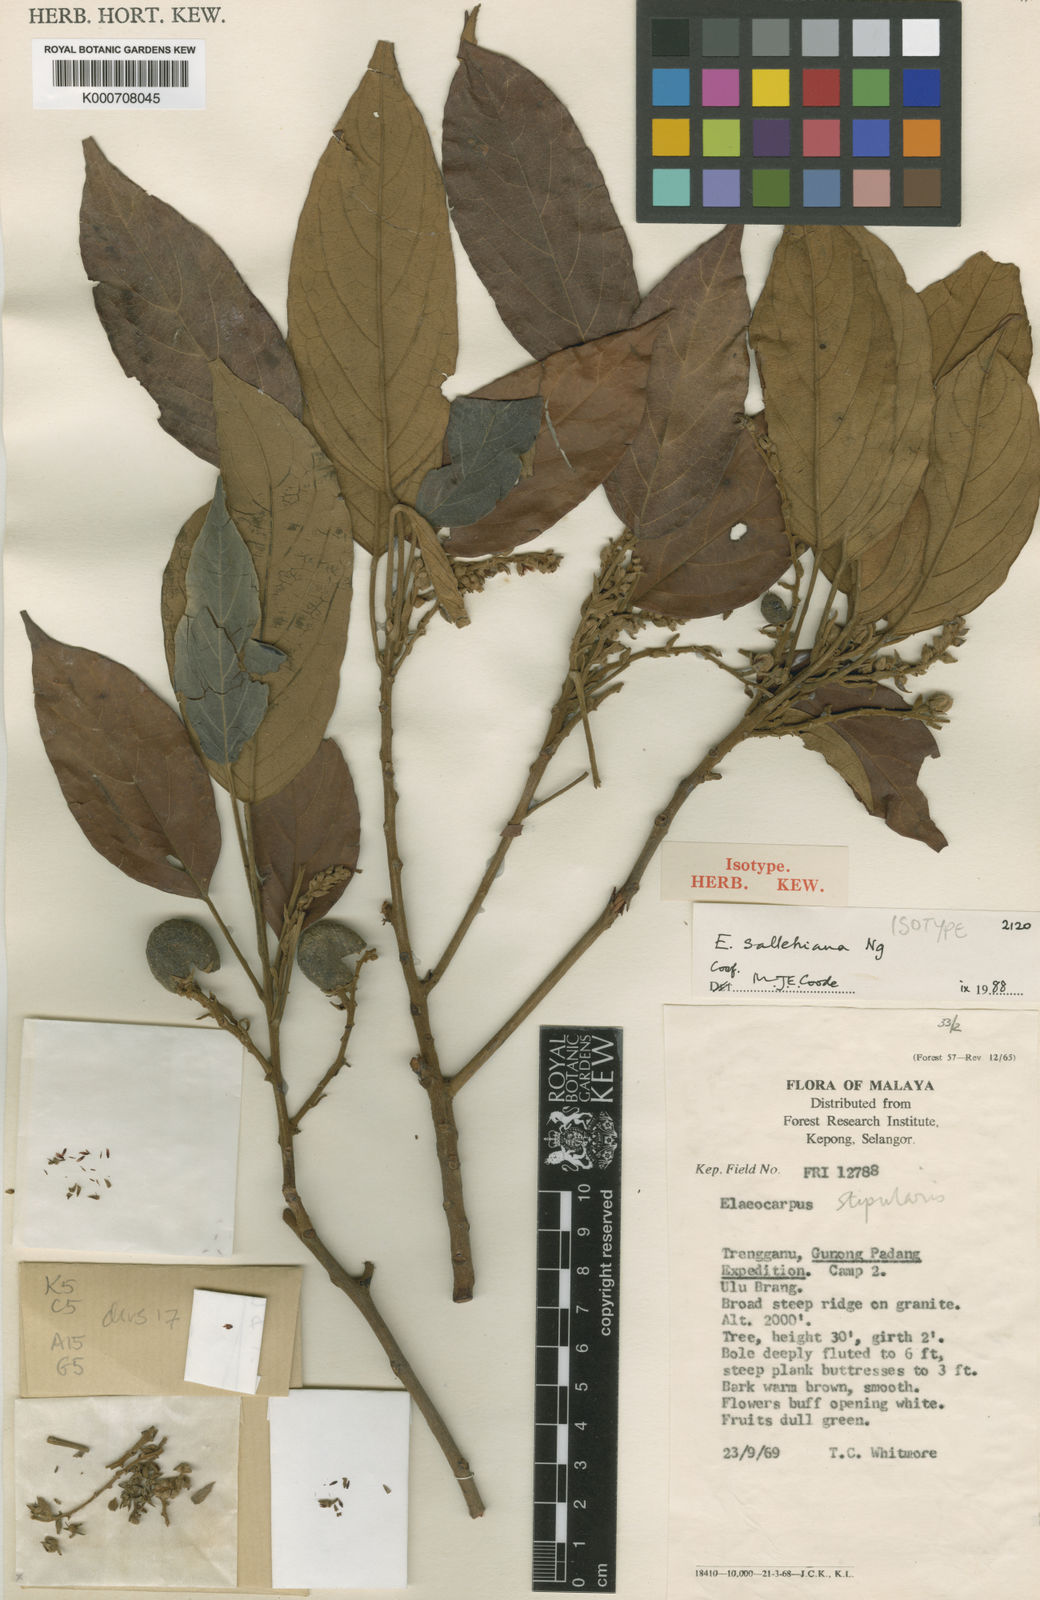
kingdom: Plantae
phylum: Tracheophyta
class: Magnoliopsida
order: Oxalidales
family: Elaeocarpaceae
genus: Elaeocarpus
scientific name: Elaeocarpus sallehianus
